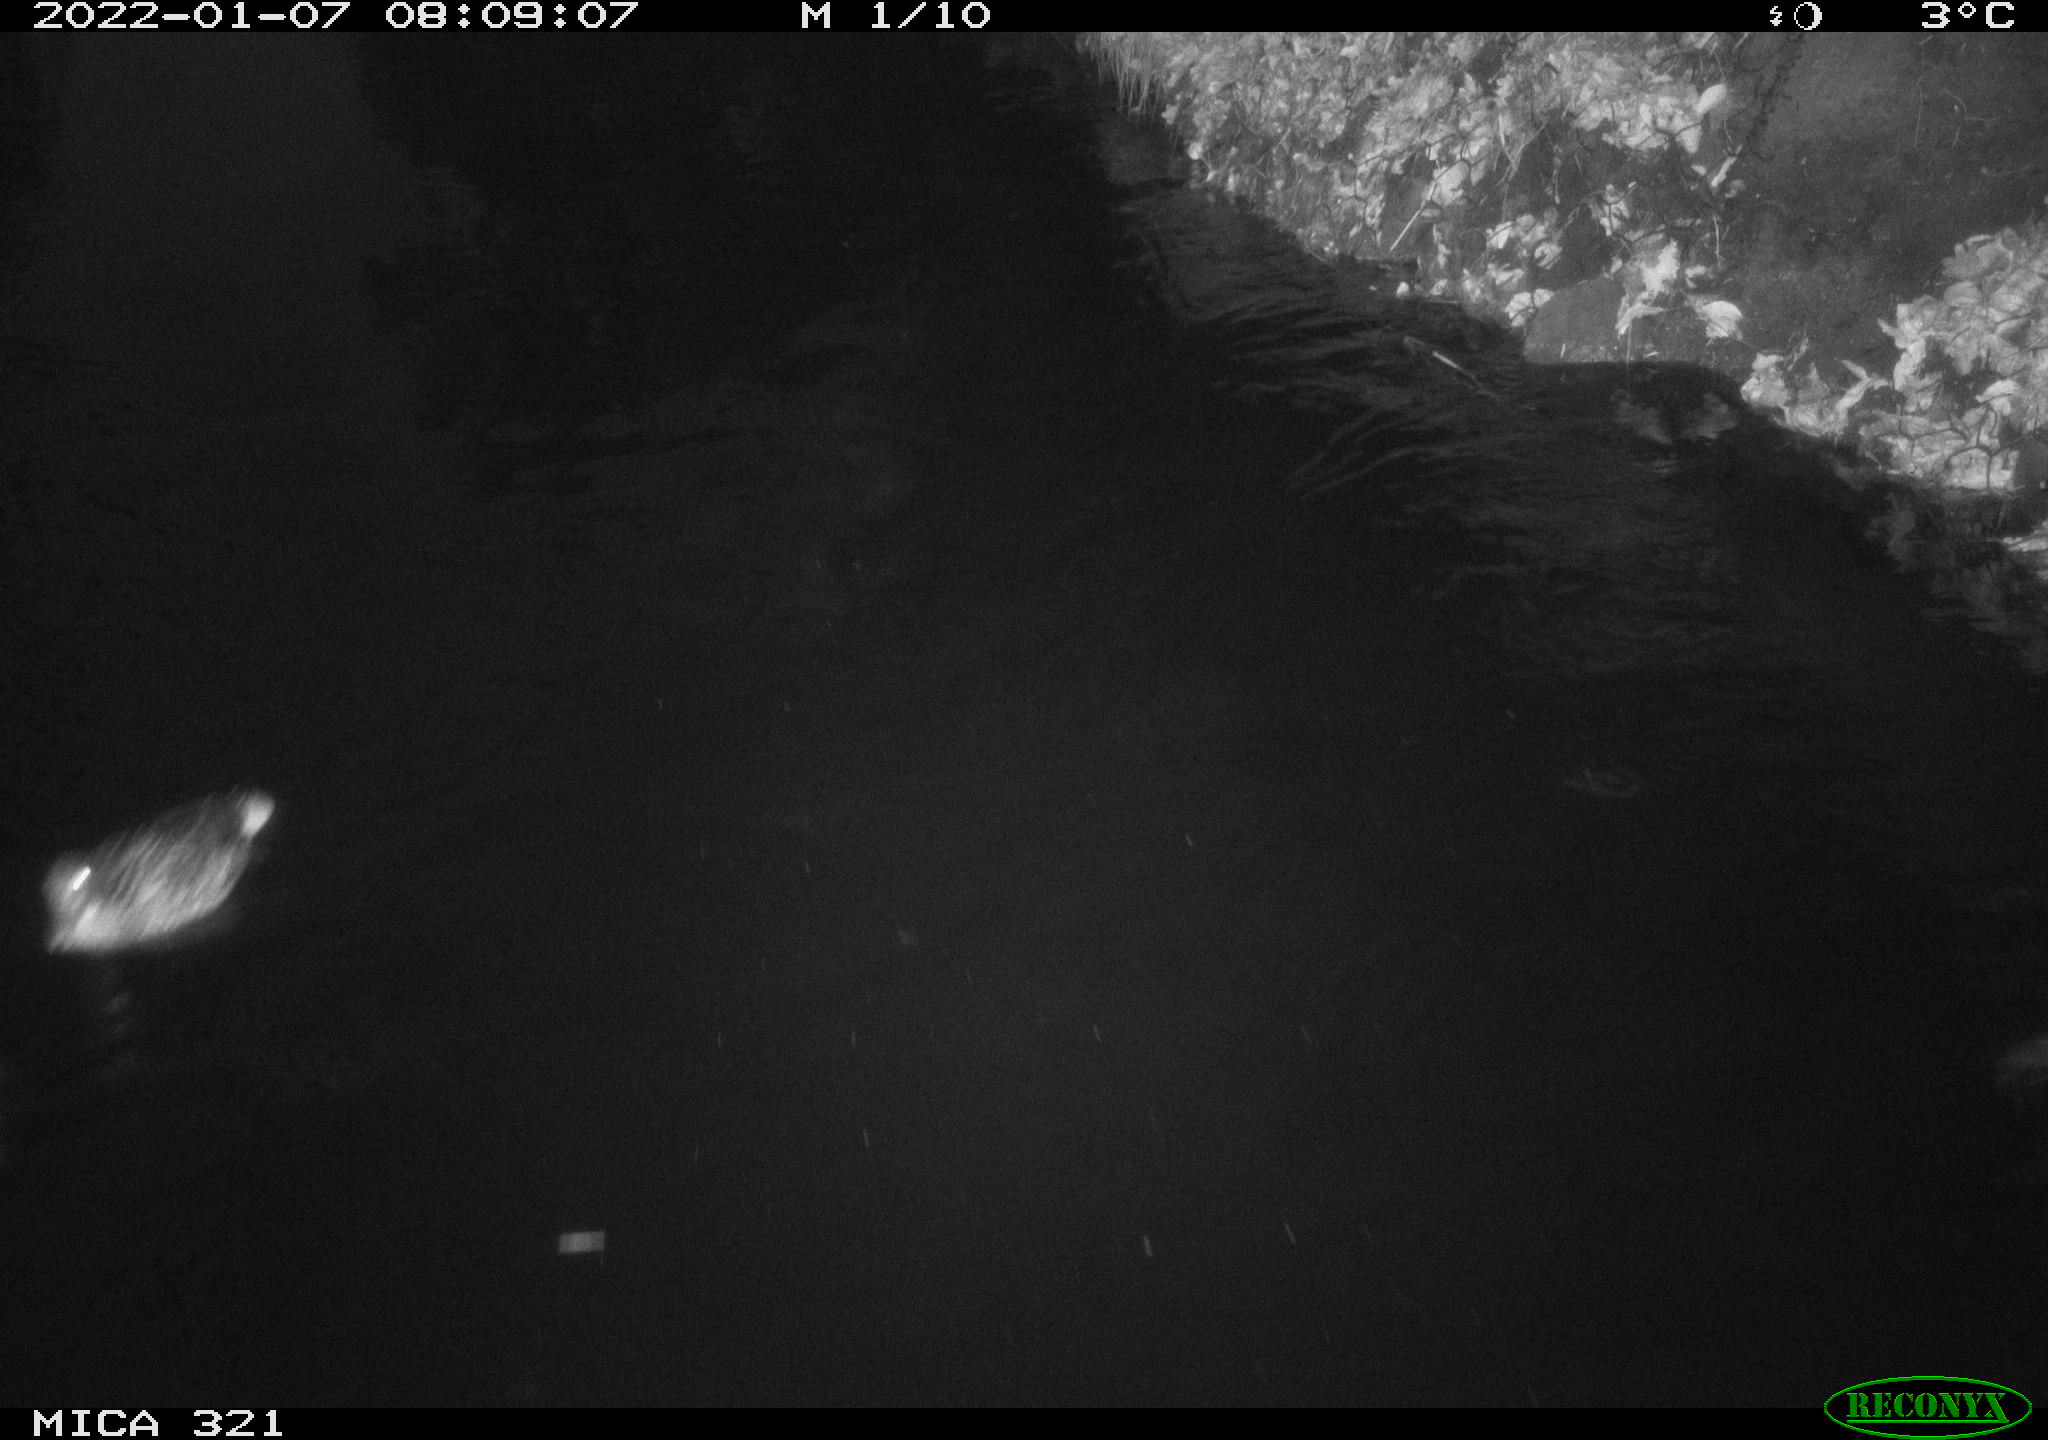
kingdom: Animalia
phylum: Chordata
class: Aves
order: Anseriformes
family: Anatidae
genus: Anas
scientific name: Anas platyrhynchos
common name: Mallard
